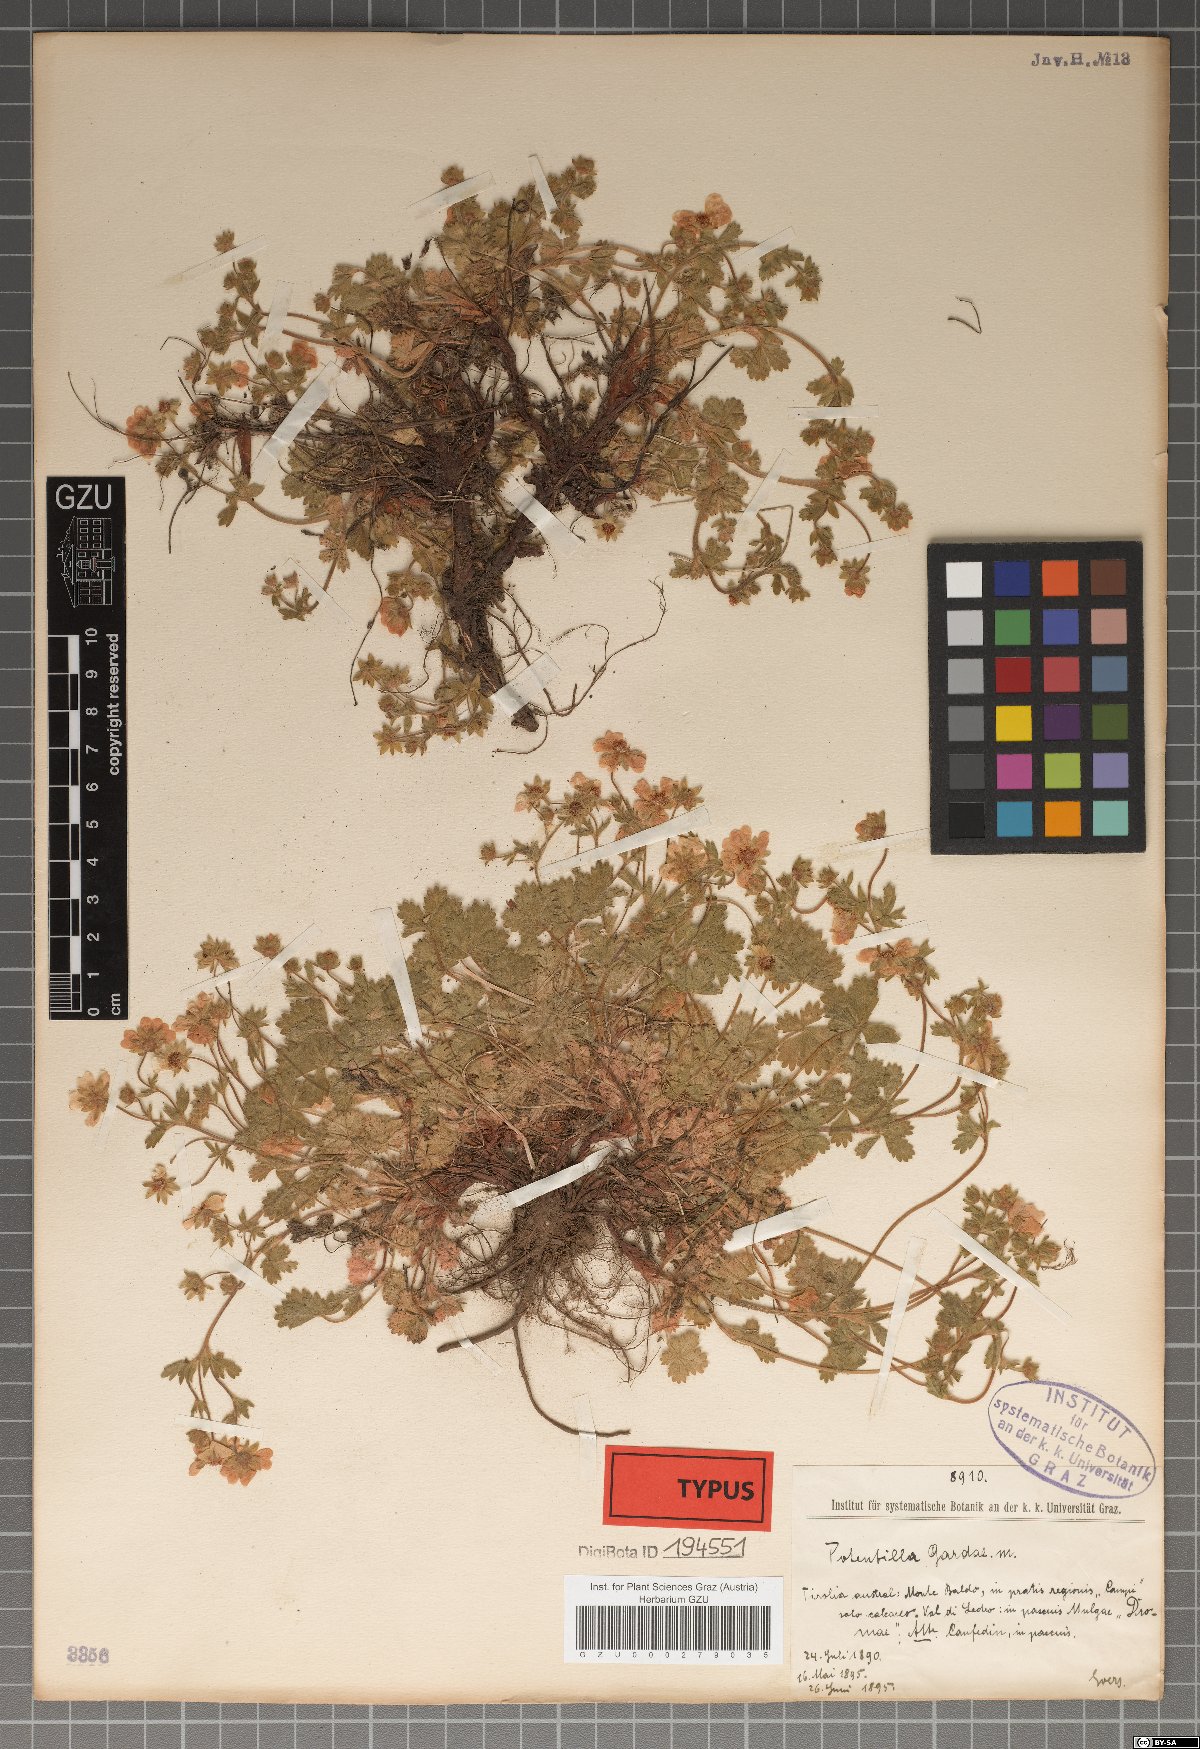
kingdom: Plantae
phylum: Tracheophyta
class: Magnoliopsida
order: Rosales
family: Rosaceae
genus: Potentilla
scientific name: Potentilla crantzii
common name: Alpine cinquefoil
